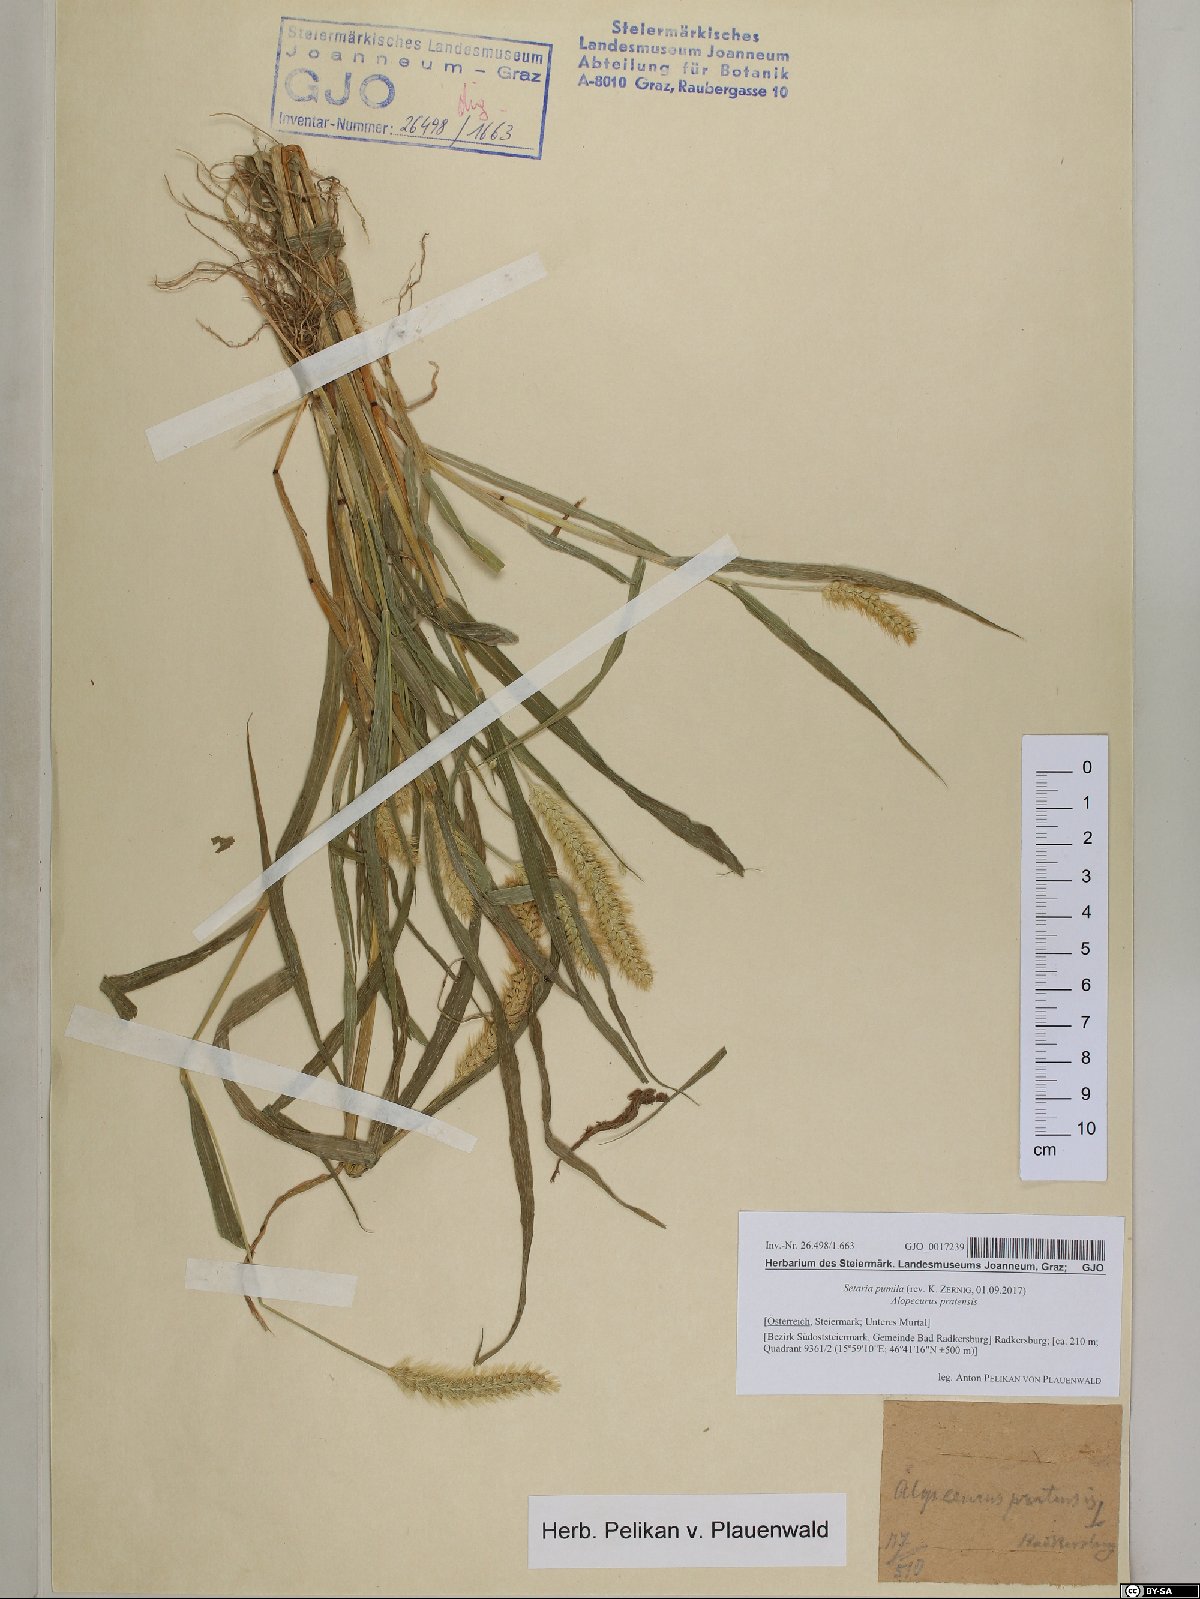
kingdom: Plantae
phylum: Tracheophyta
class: Liliopsida
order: Poales
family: Poaceae
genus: Setaria
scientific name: Setaria pumila
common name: Yellow bristle-grass
